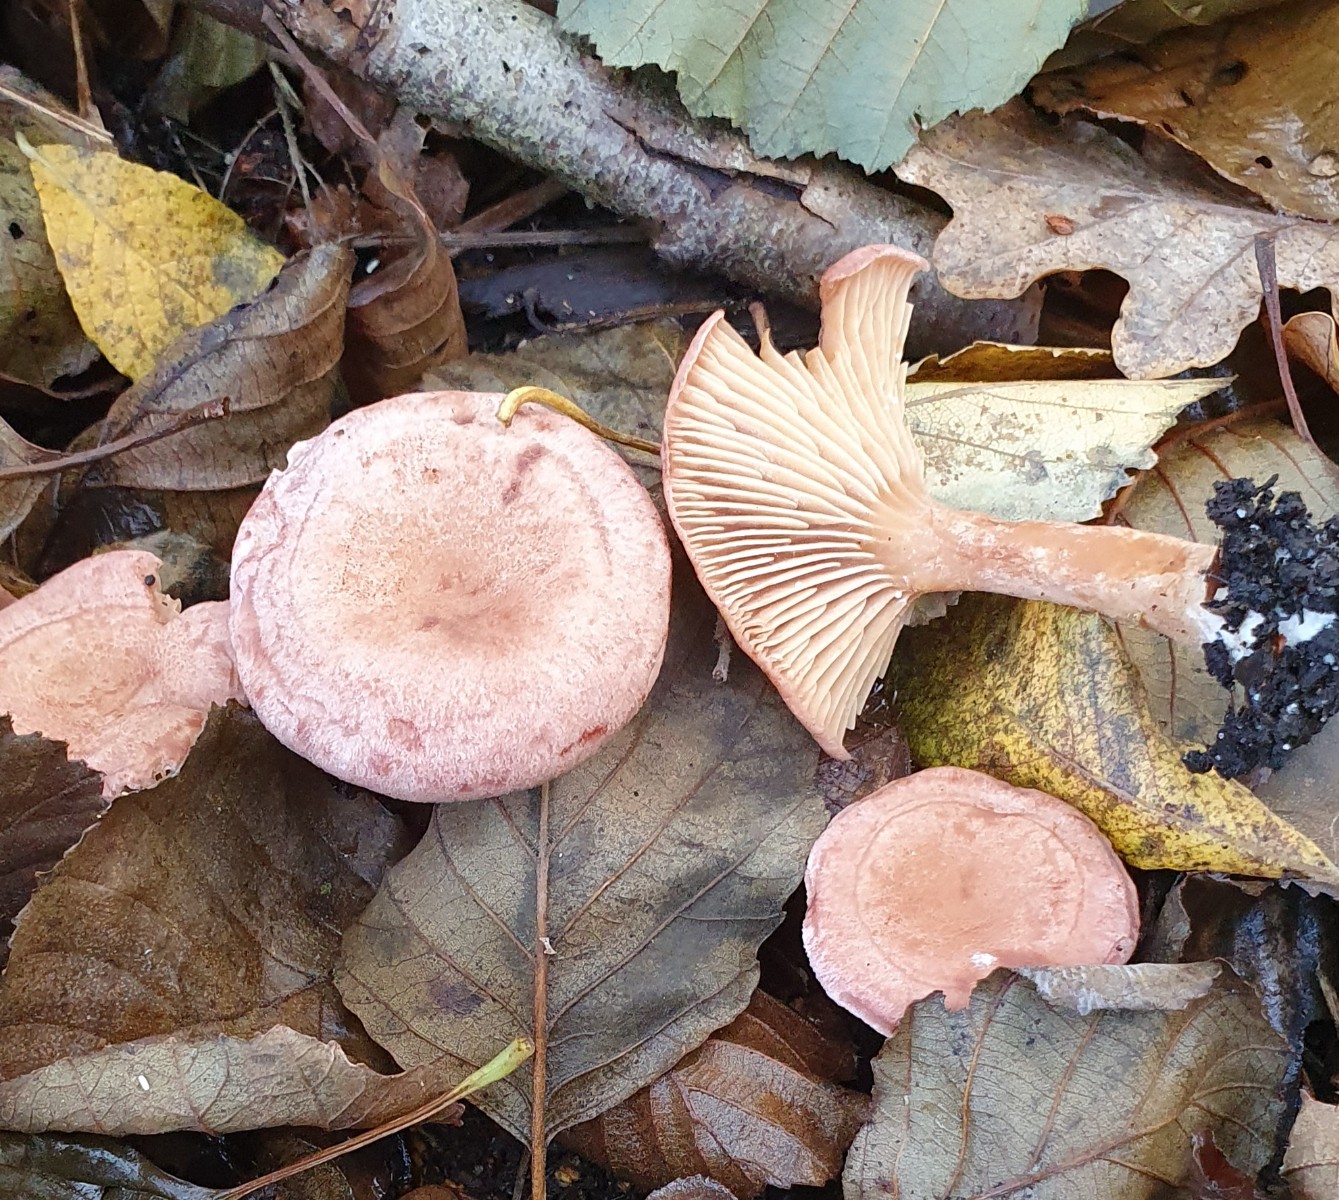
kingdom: Fungi
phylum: Basidiomycota
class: Agaricomycetes
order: Russulales
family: Russulaceae
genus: Lactarius
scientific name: Lactarius lilacinus
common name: lilla mælkehat
